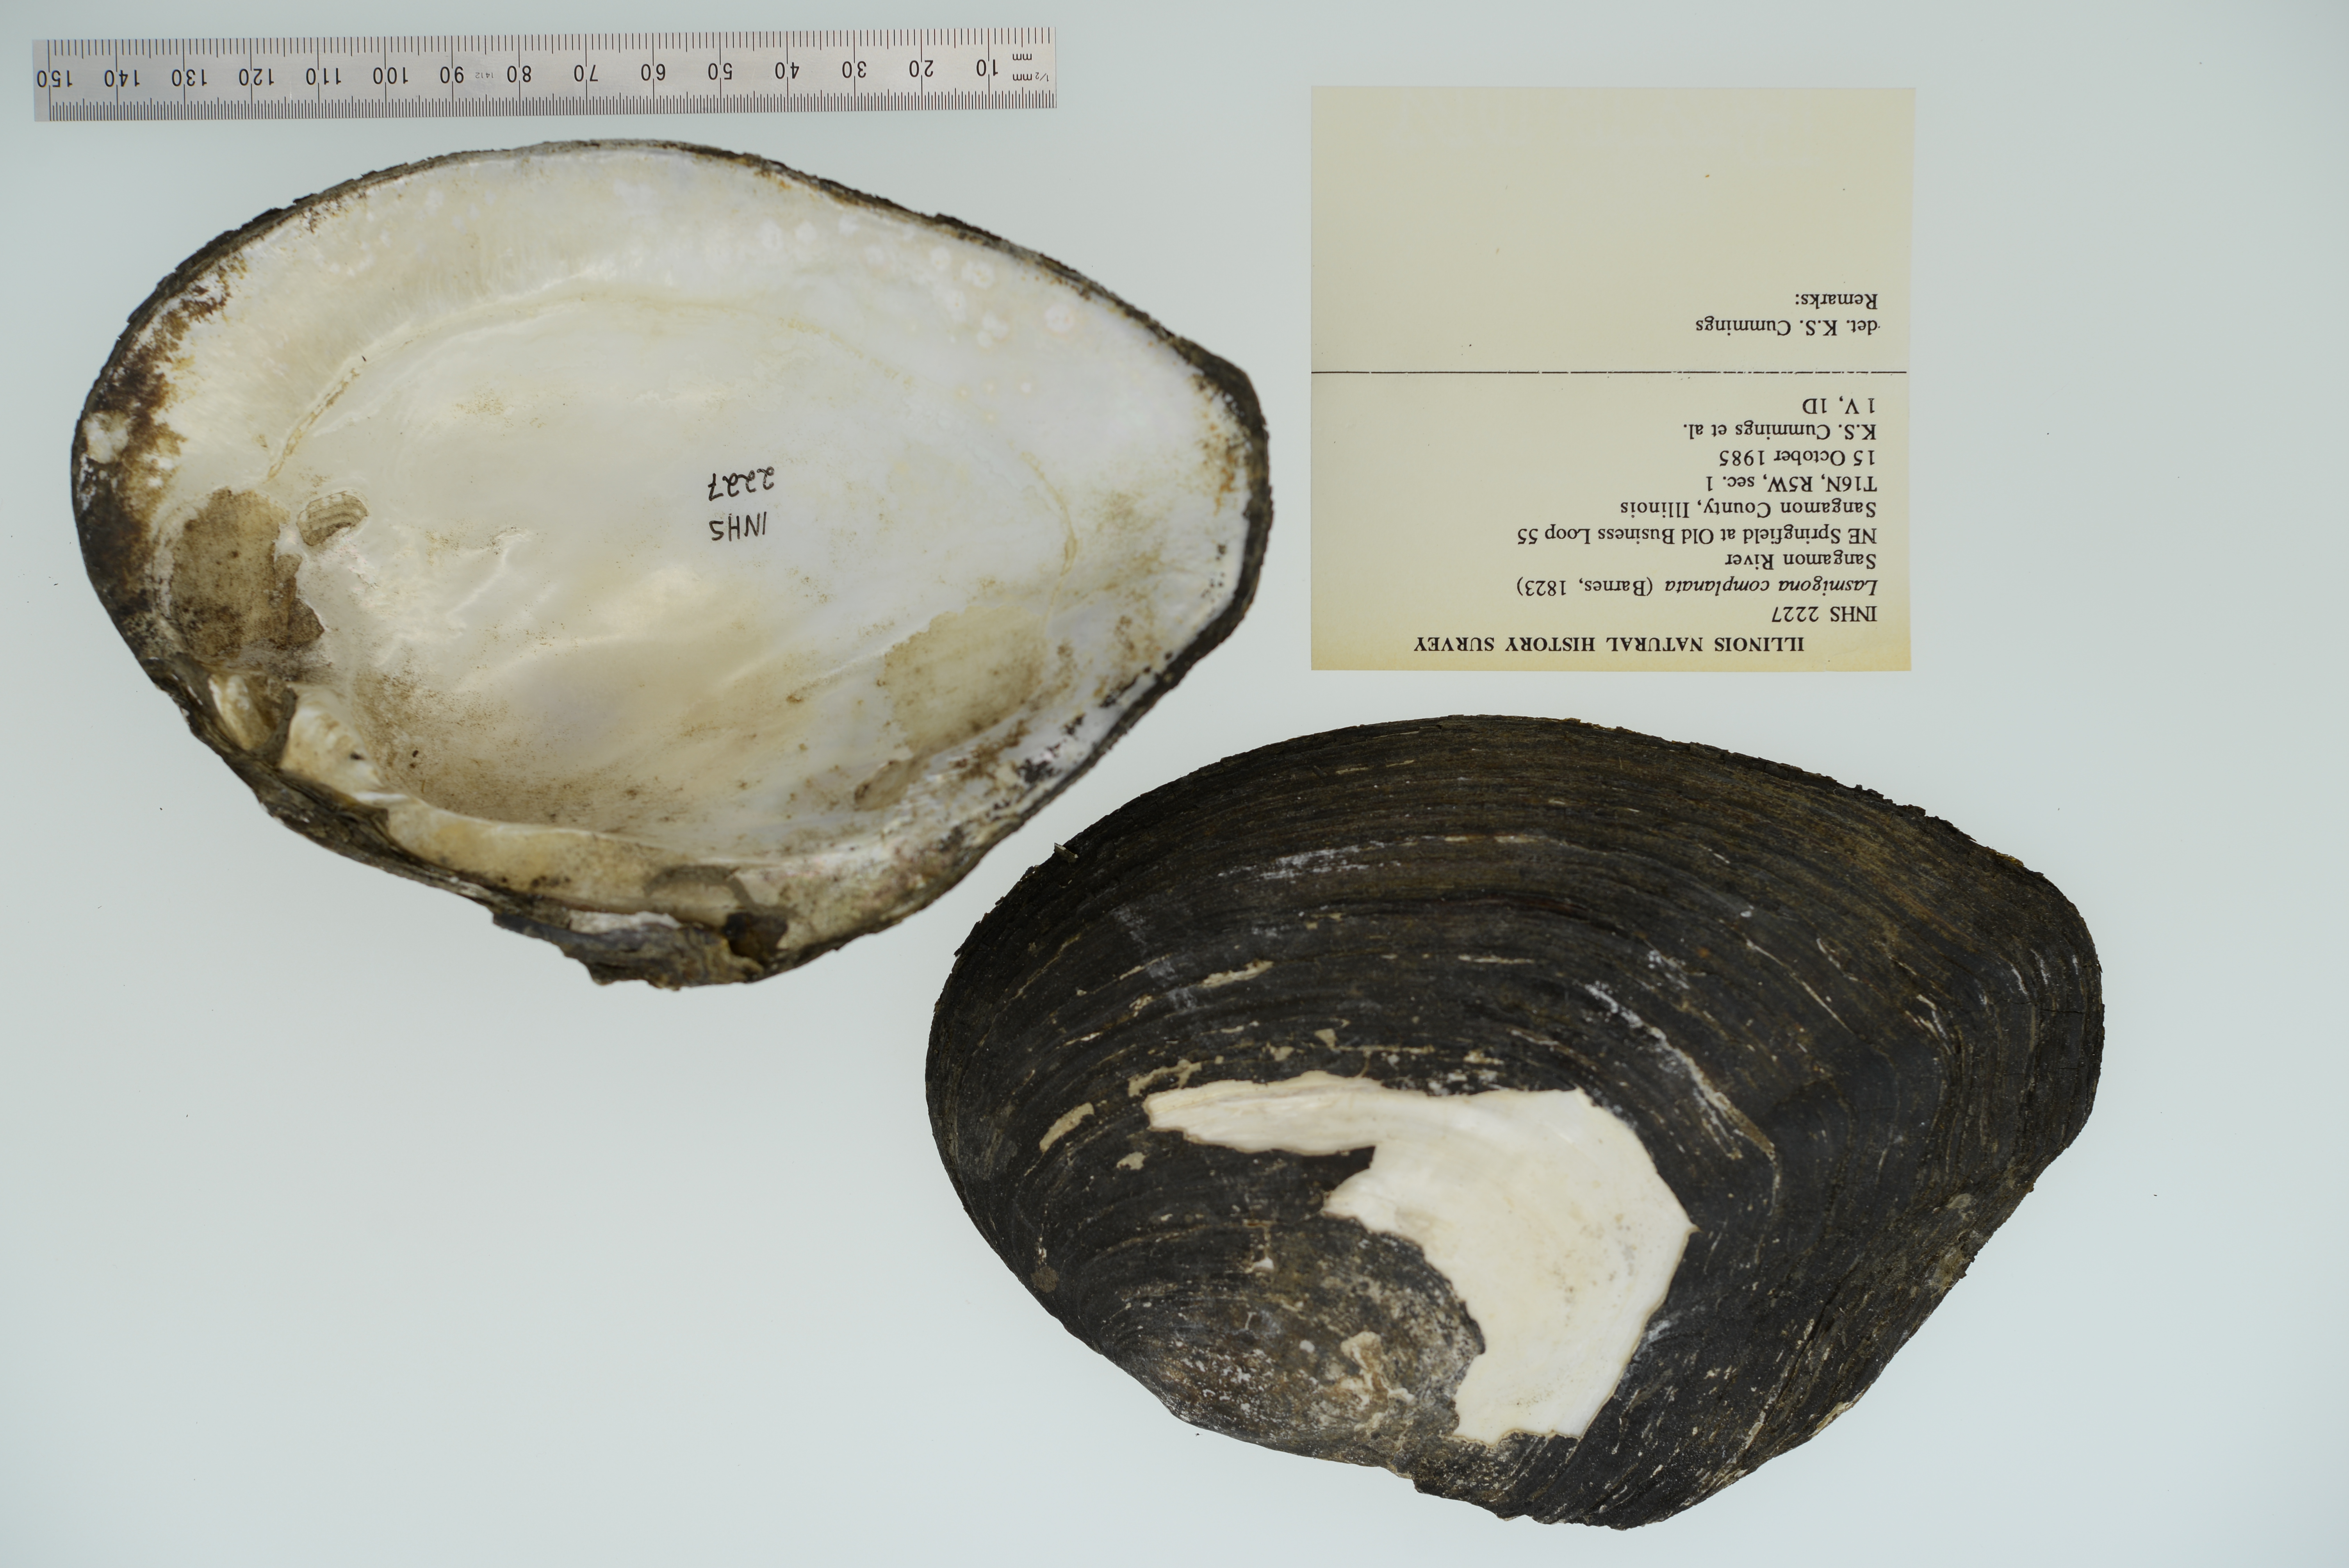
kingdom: Animalia
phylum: Mollusca
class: Bivalvia
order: Unionida
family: Unionidae
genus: Lasmigona
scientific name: Lasmigona complanata
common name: White heelsplitter
